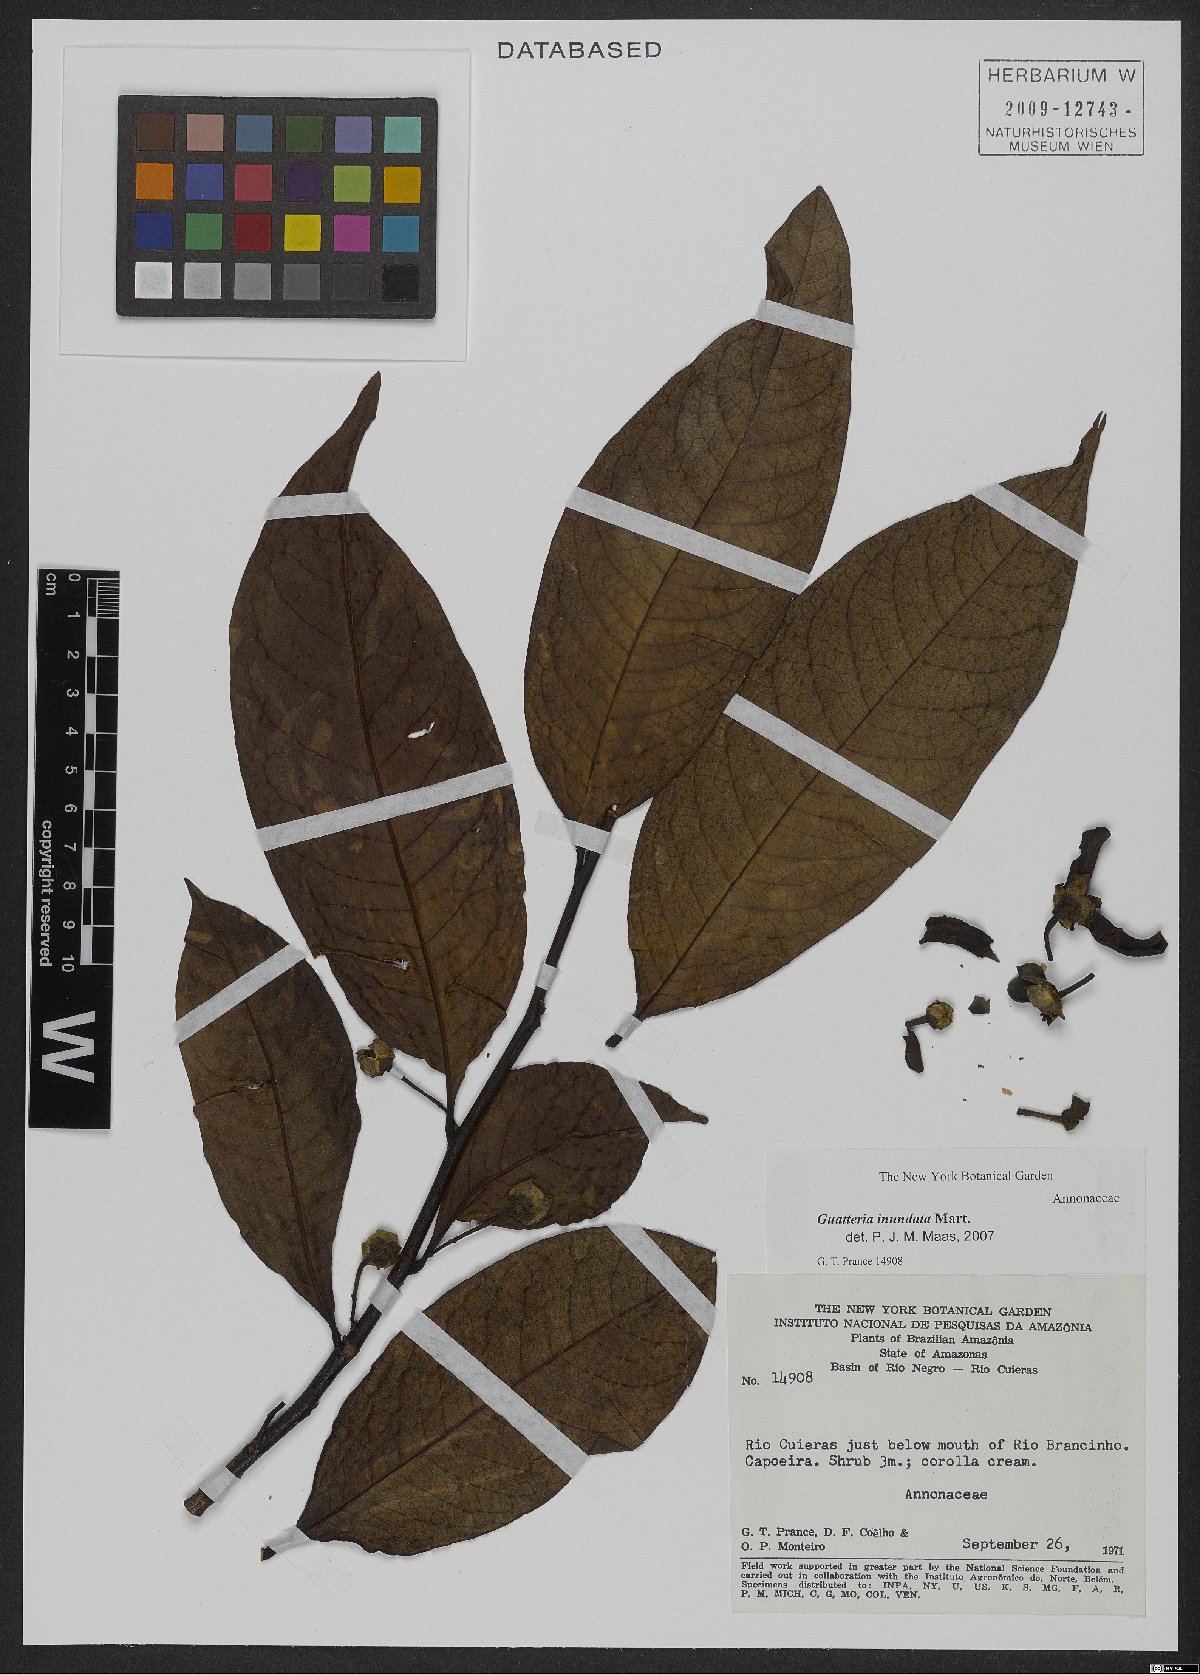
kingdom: Plantae
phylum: Tracheophyta
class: Magnoliopsida
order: Magnoliales
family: Annonaceae
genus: Guatteria
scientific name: Guatteria inundata
